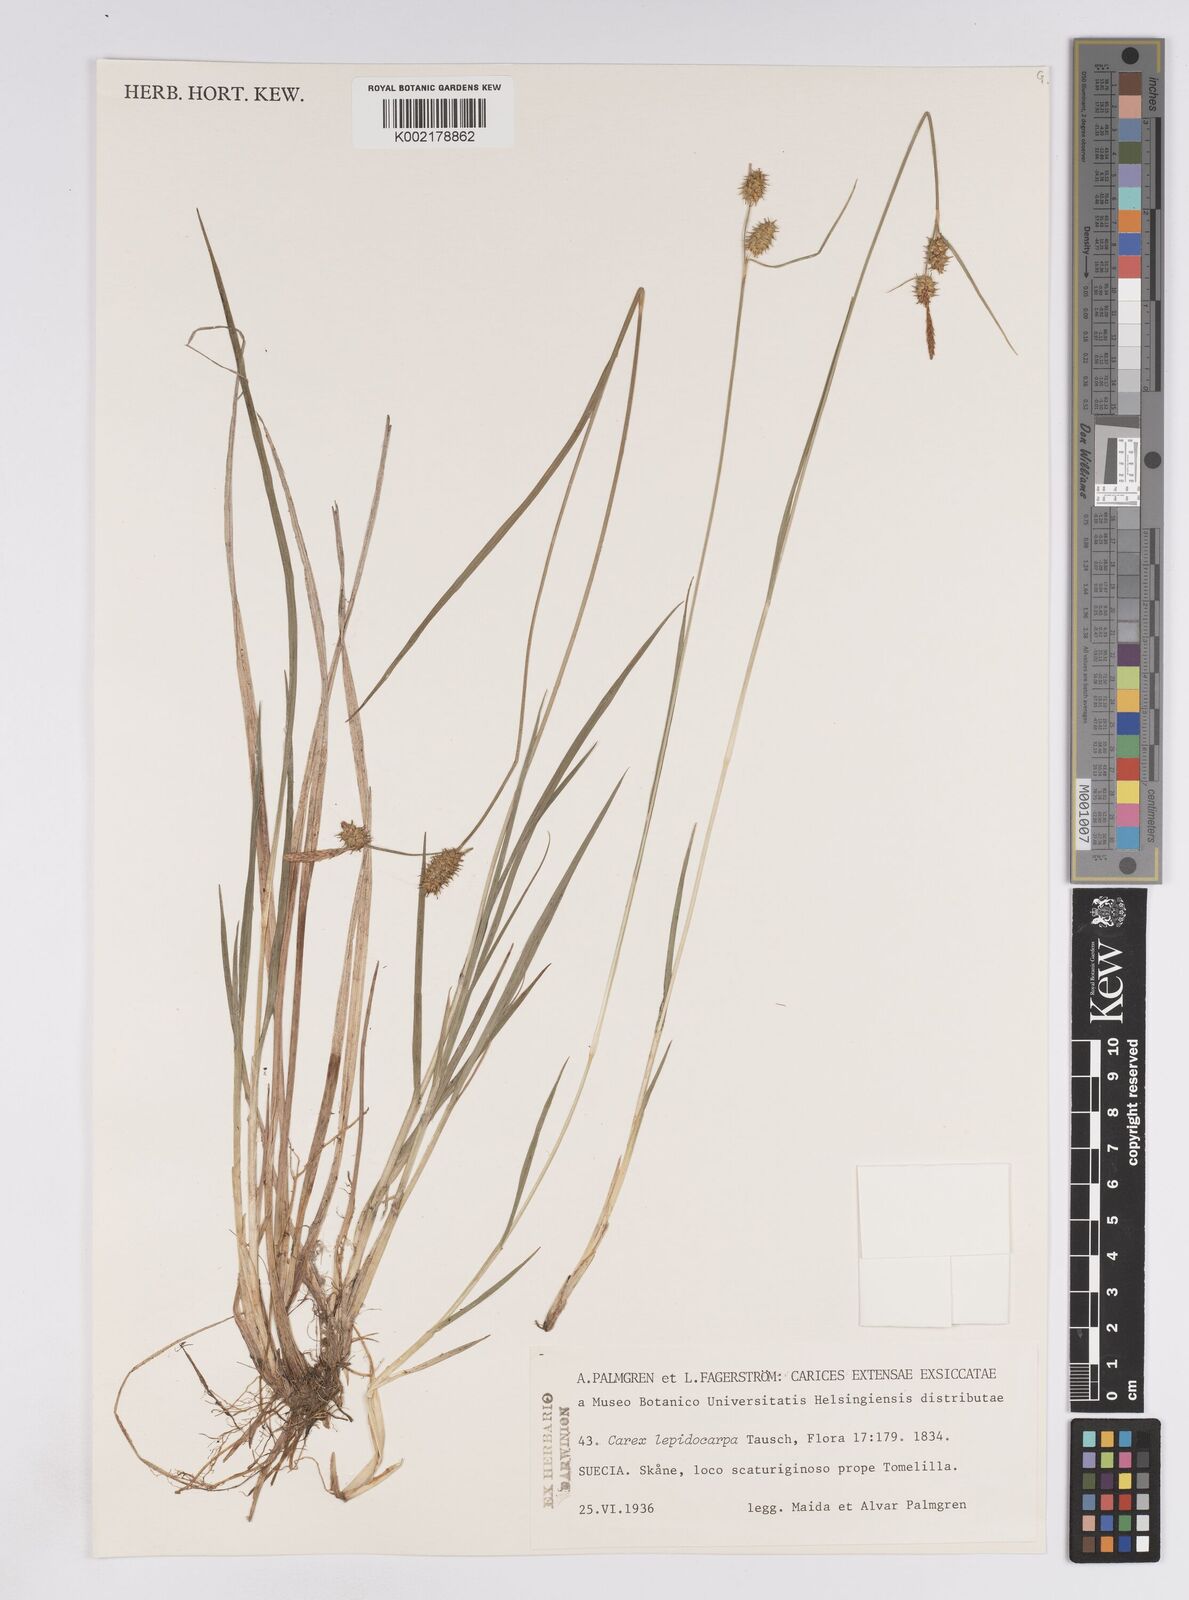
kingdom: Plantae
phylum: Tracheophyta
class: Liliopsida
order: Poales
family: Cyperaceae
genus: Carex
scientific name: Carex lepidocarpa
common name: Long-stalked yellow-sedge
